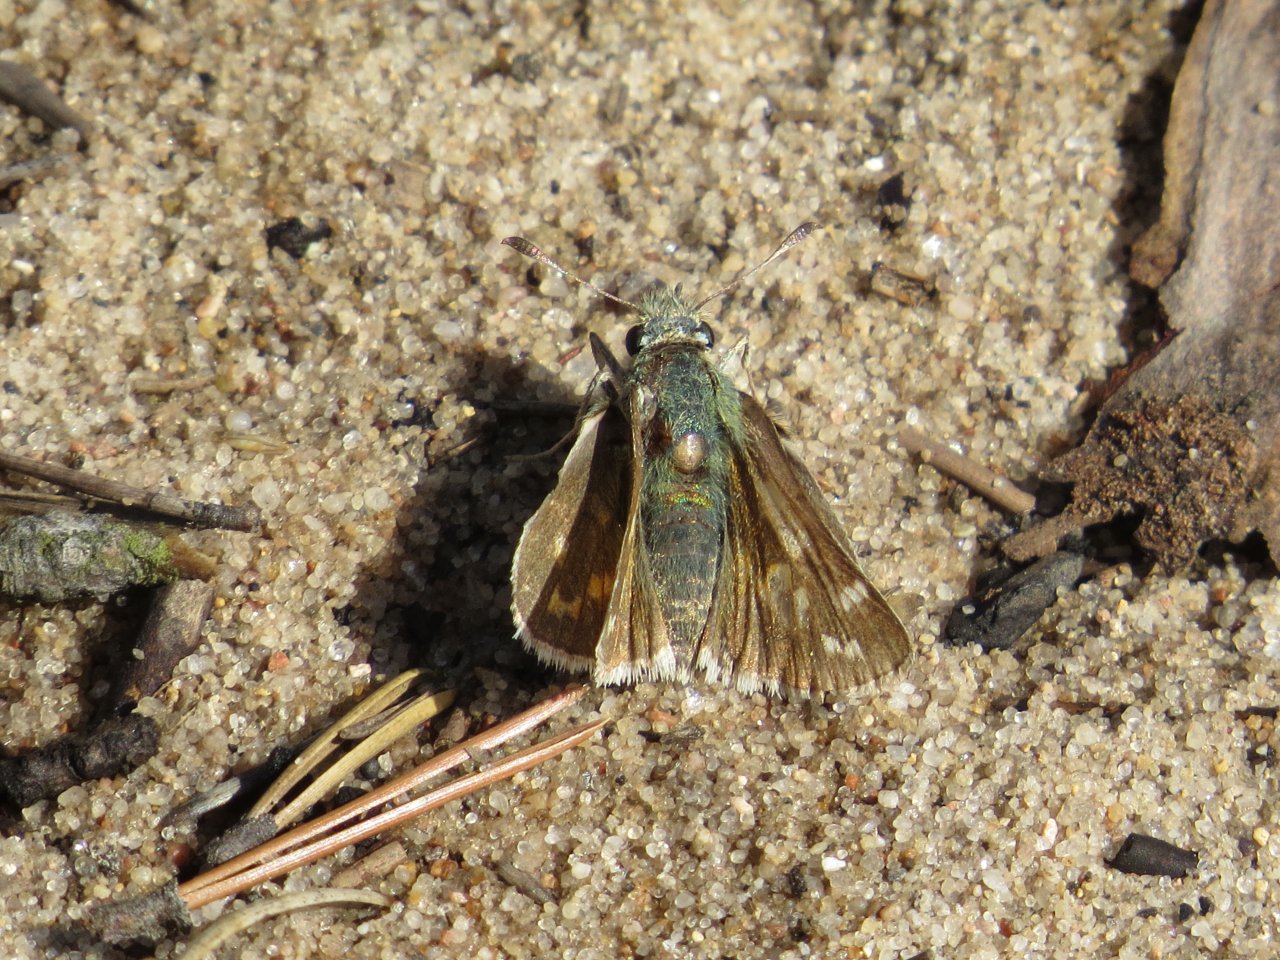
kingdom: Animalia
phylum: Arthropoda
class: Insecta
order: Lepidoptera
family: Hesperiidae
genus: Hesperia
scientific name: Hesperia comma
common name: Common Branded Skipper
